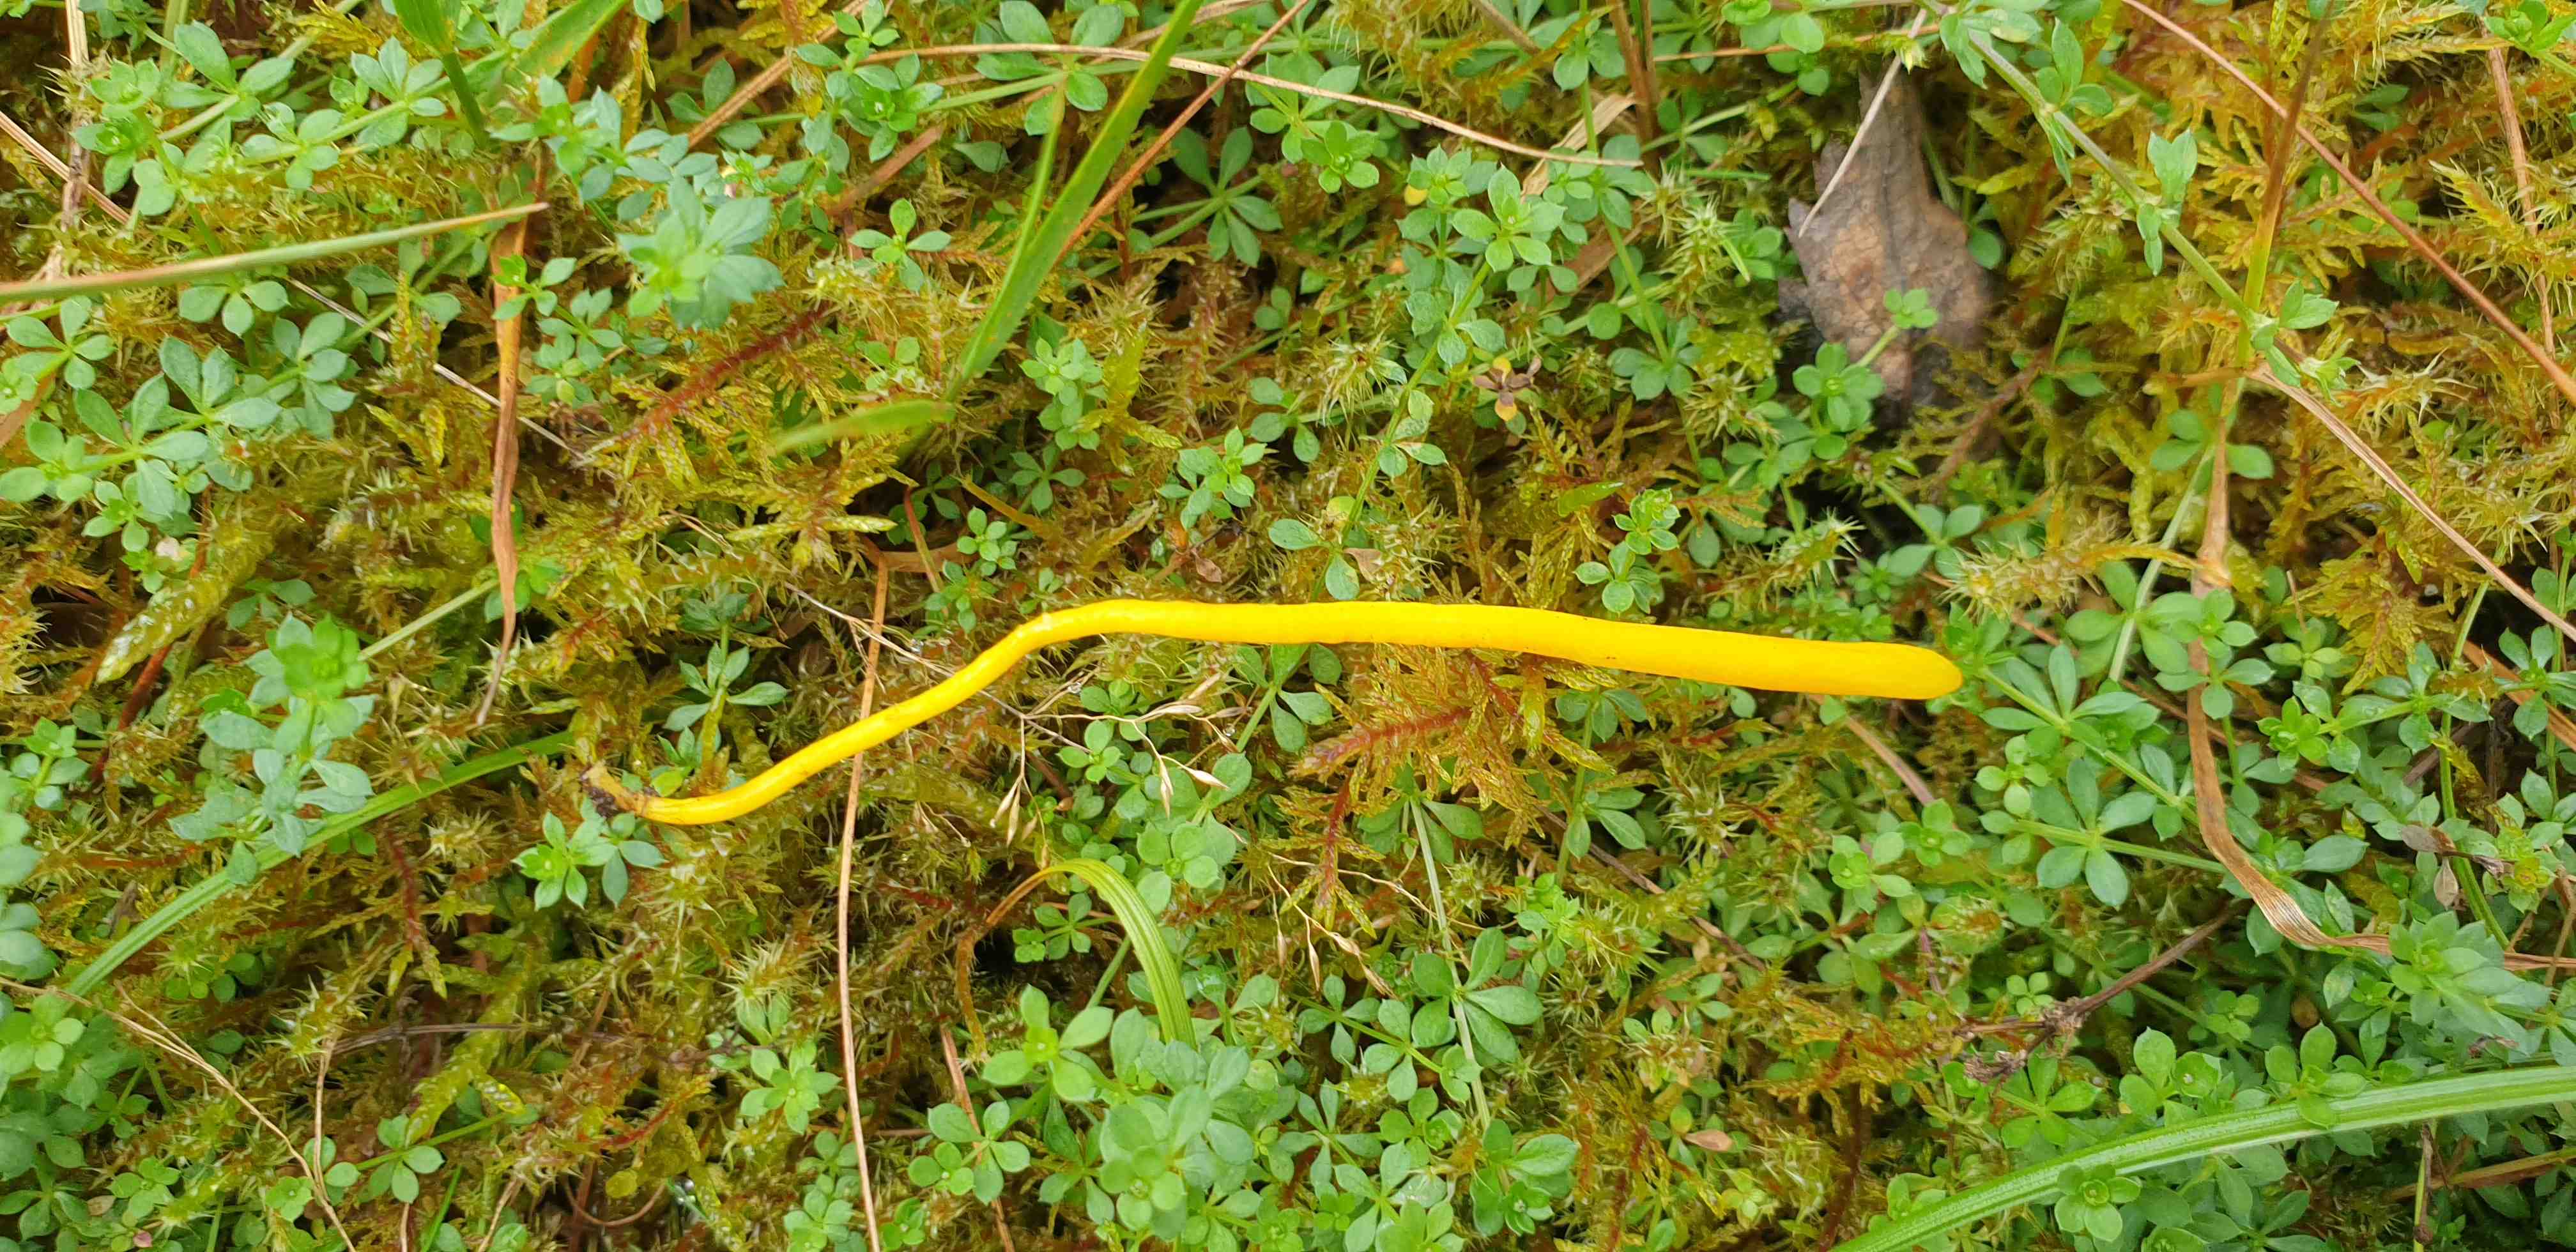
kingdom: Fungi
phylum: Basidiomycota
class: Agaricomycetes
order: Agaricales
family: Clavariaceae
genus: Clavulinopsis
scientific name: Clavulinopsis
